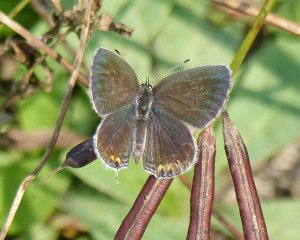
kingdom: Animalia
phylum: Arthropoda
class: Insecta
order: Lepidoptera
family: Lycaenidae
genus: Elkalyce
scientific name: Elkalyce comyntas
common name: Eastern Tailed-Blue
